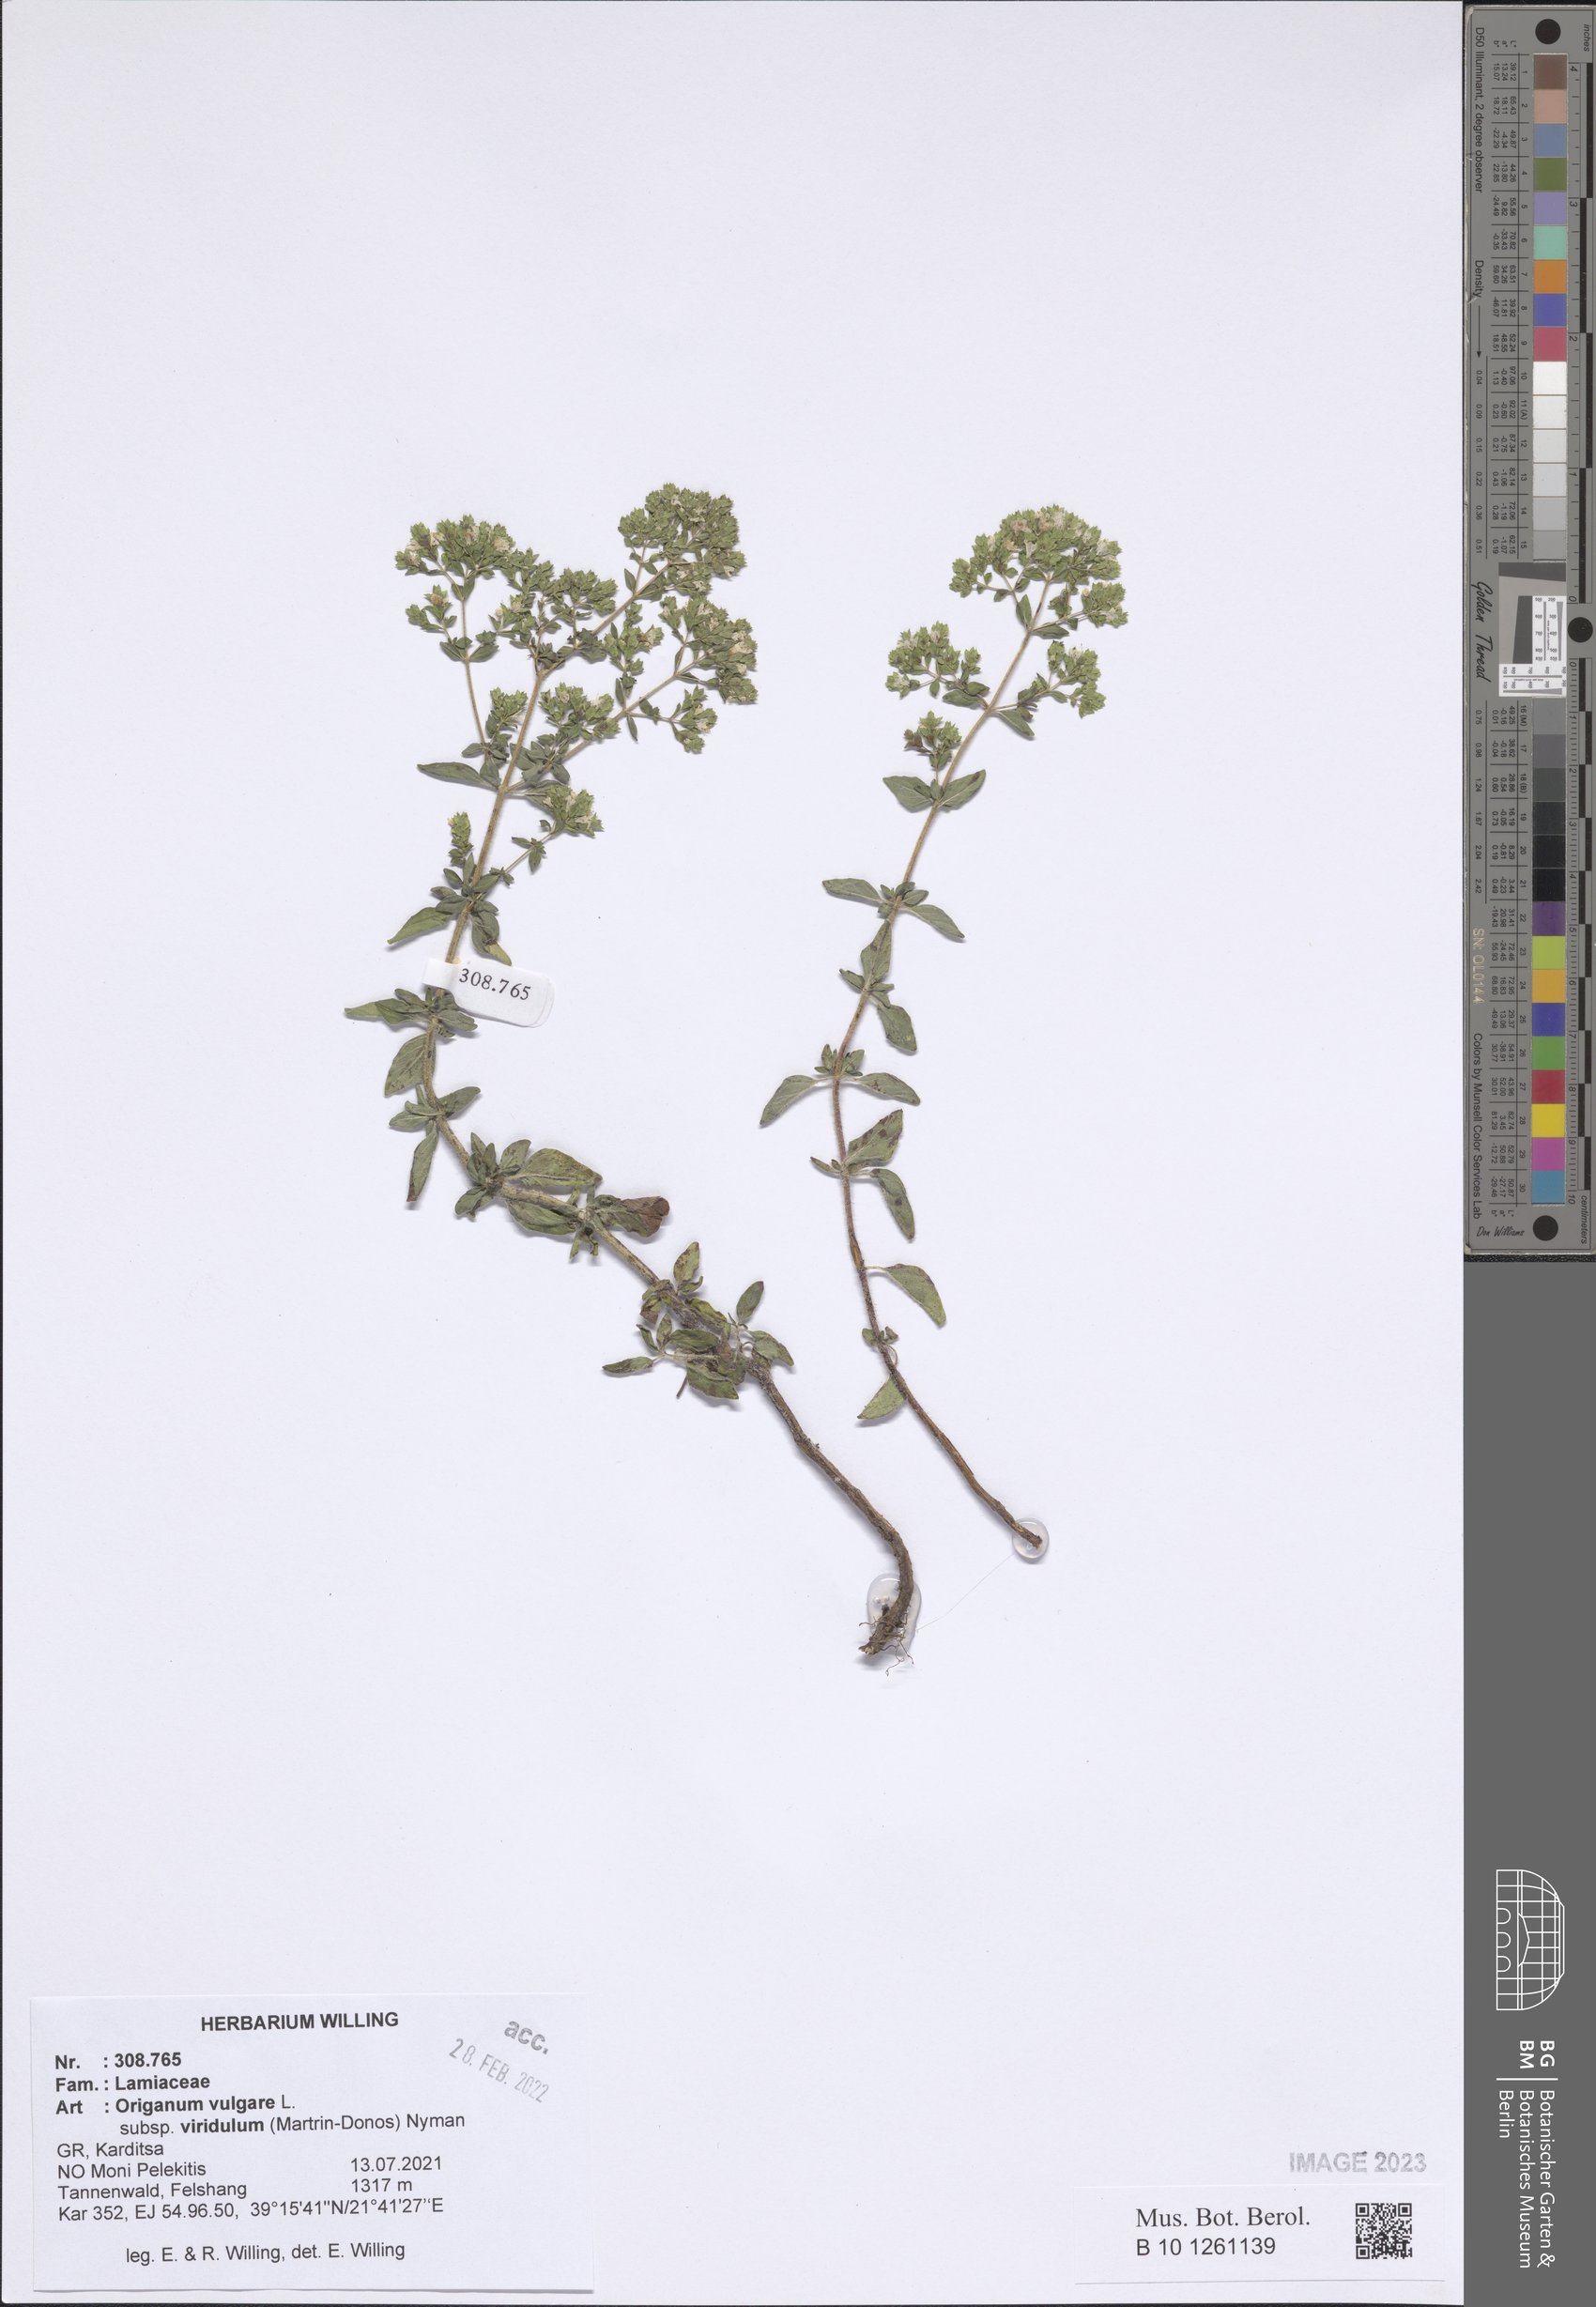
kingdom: Plantae
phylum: Tracheophyta
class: Magnoliopsida
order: Lamiales
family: Lamiaceae
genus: Origanum
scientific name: Origanum vulgare
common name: Wild marjoram
